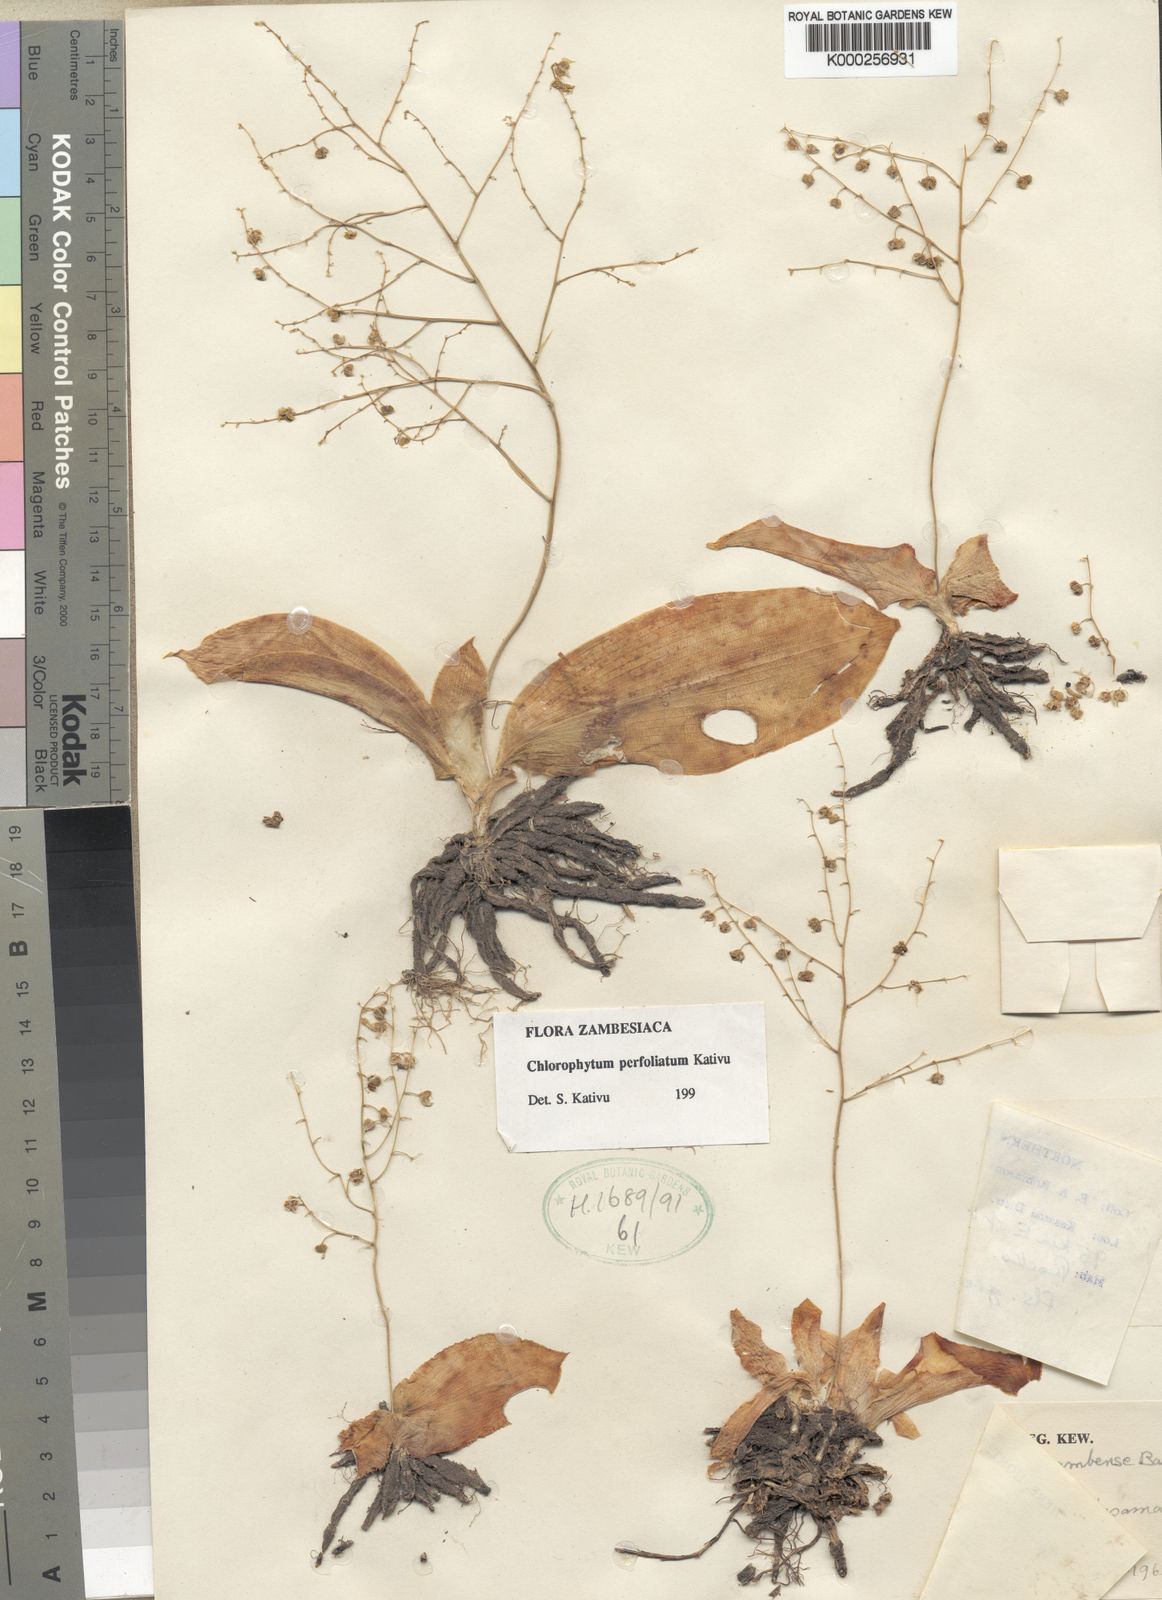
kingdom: Plantae
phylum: Tracheophyta
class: Liliopsida
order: Asparagales
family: Asparagaceae
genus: Chlorophytum
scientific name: Chlorophytum perfoliatum
